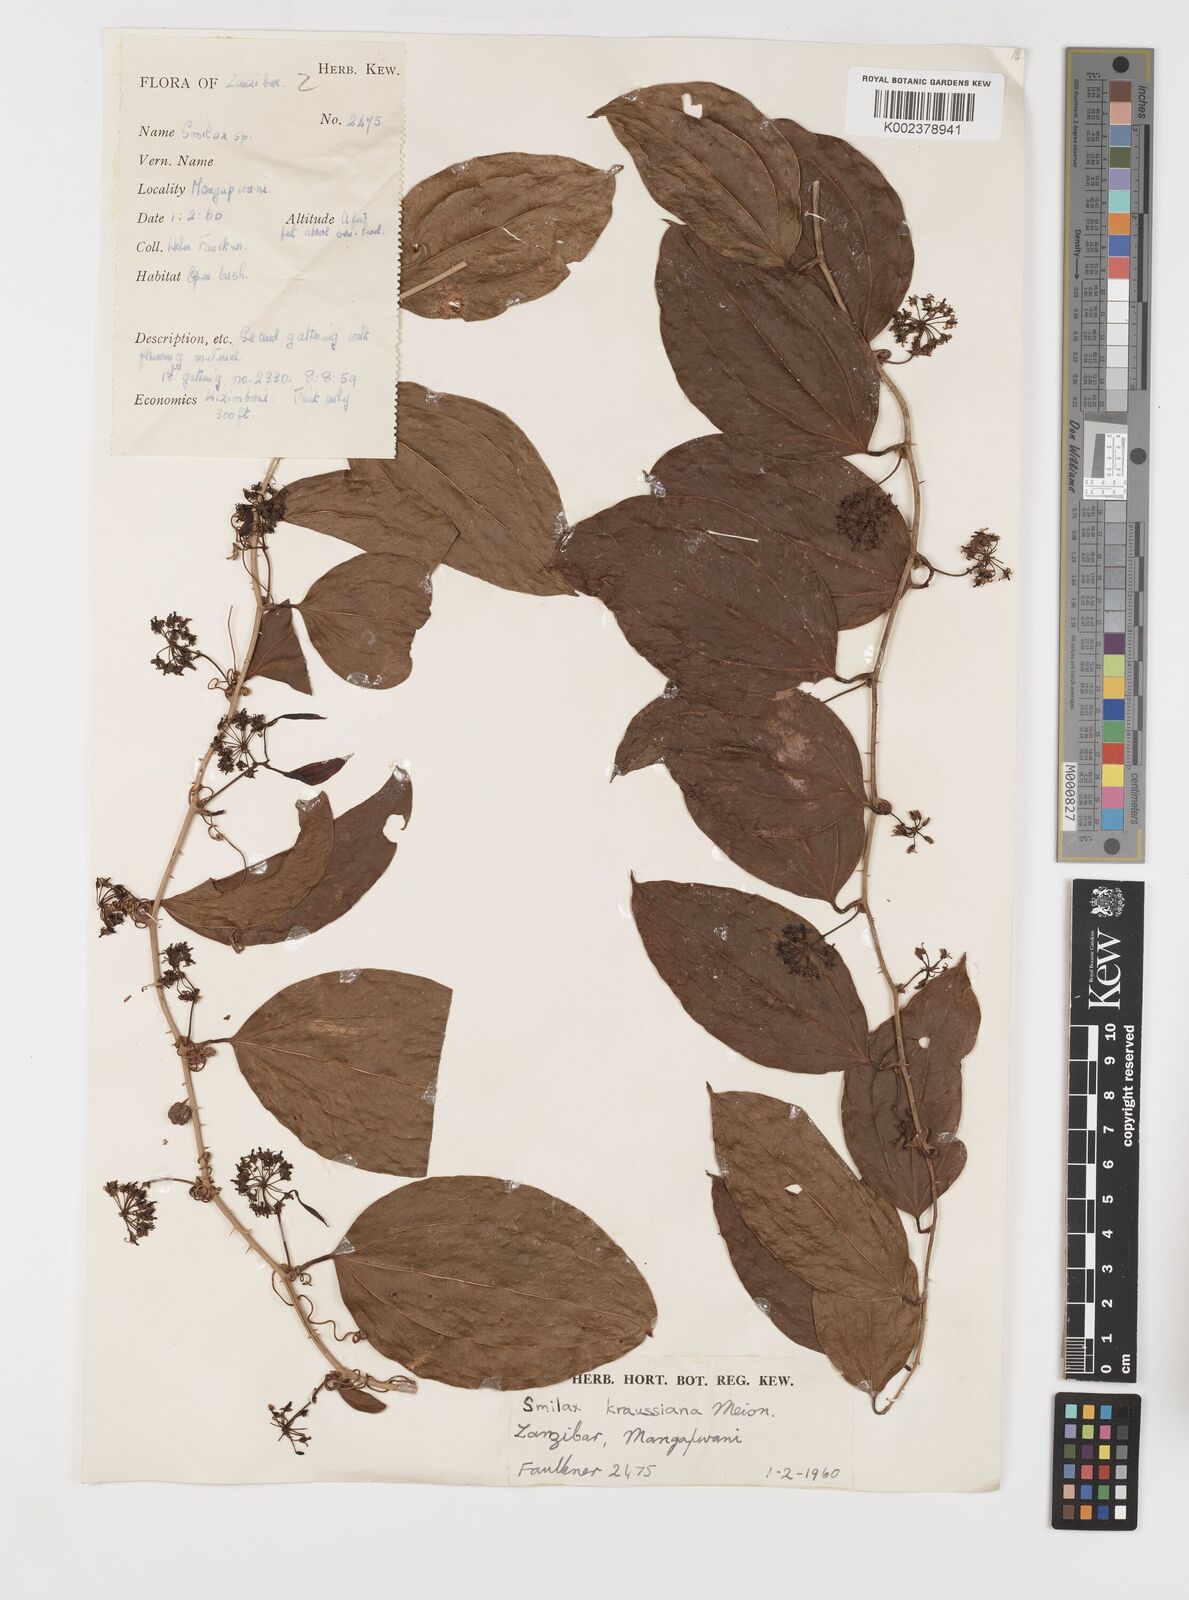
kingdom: Plantae
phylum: Tracheophyta
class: Liliopsida
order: Liliales
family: Smilacaceae
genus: Smilax
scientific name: Smilax anceps
